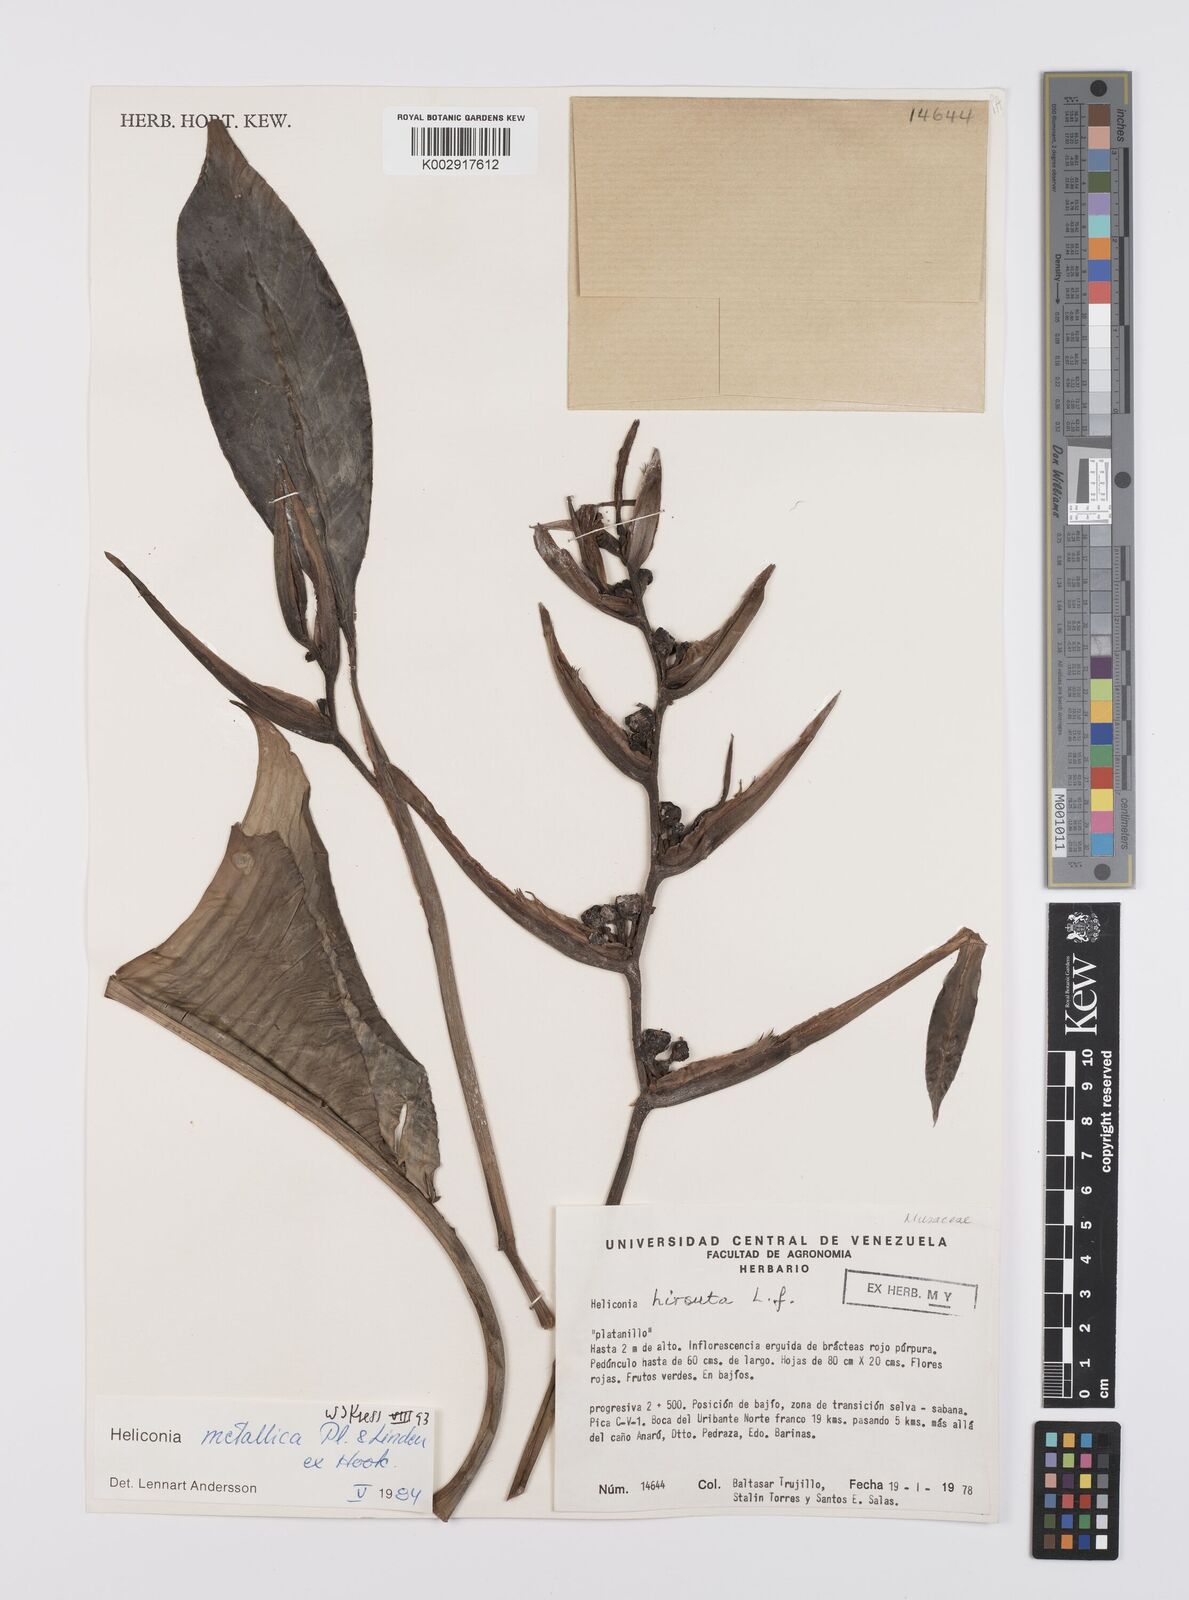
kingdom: Plantae
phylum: Tracheophyta
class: Liliopsida
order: Zingiberales
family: Heliconiaceae
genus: Heliconia
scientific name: Heliconia metallica
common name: Shining bird of paradise
